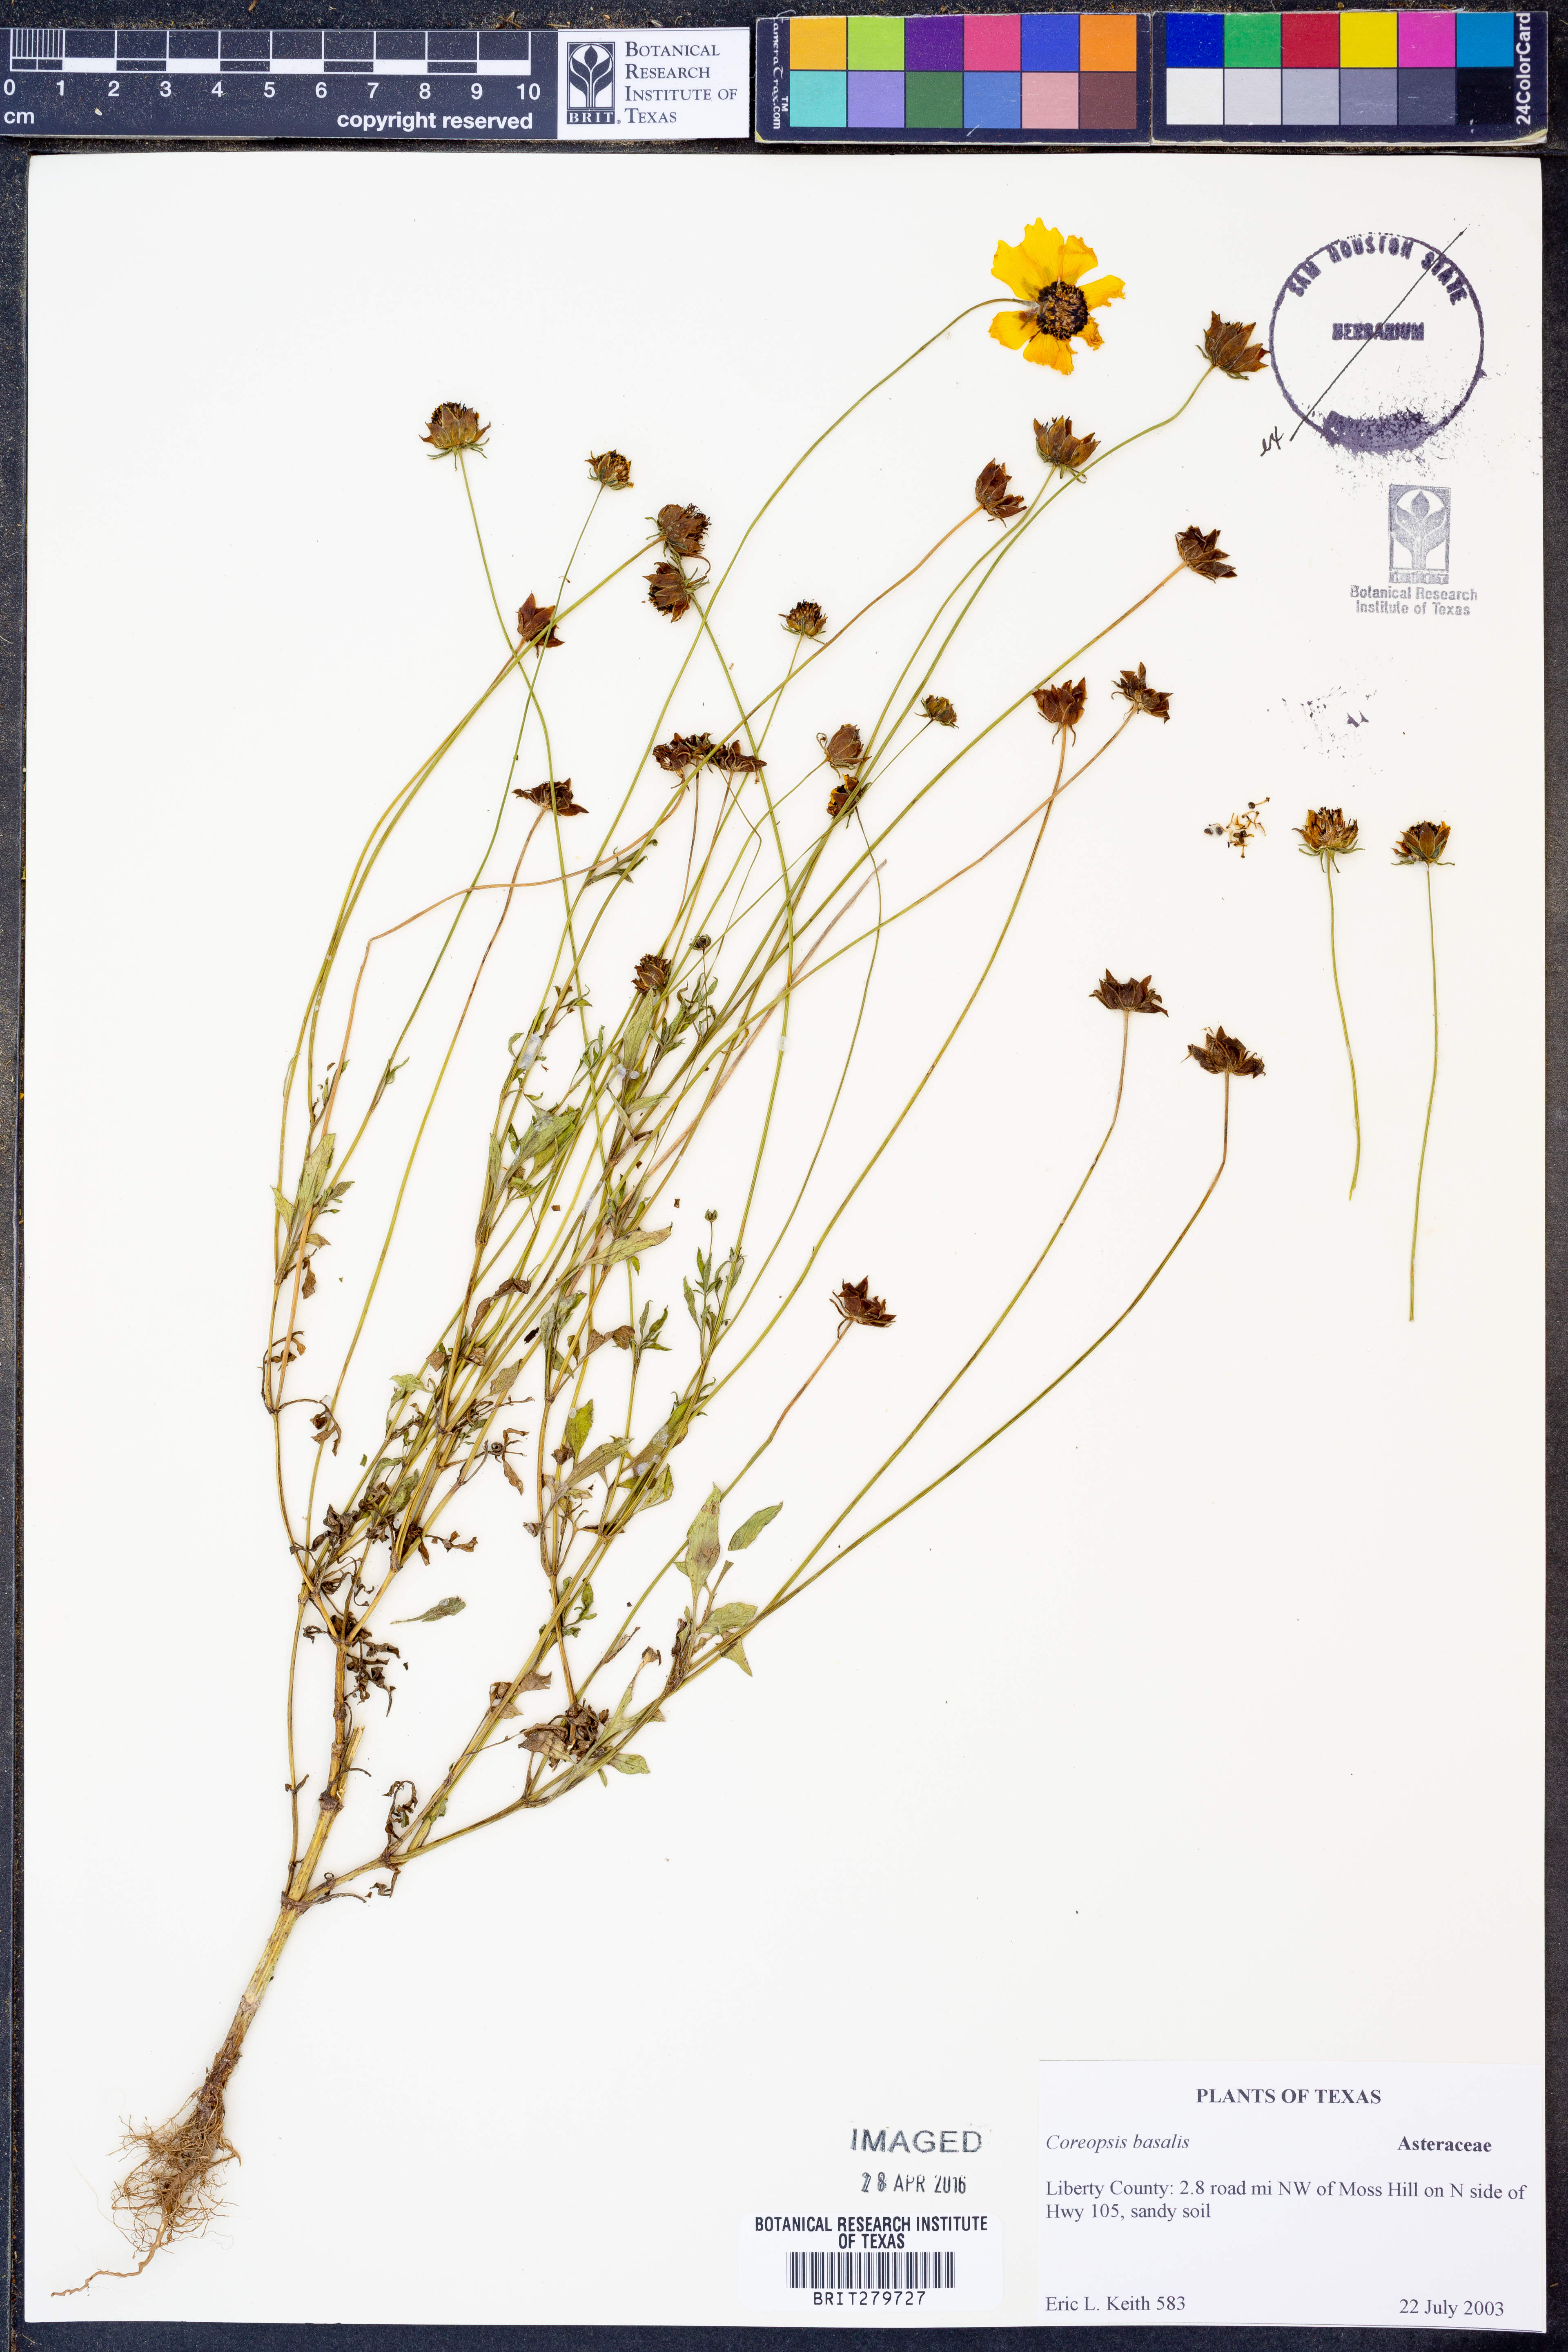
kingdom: Plantae
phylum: Tracheophyta
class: Magnoliopsida
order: Asterales
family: Asteraceae
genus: Coreopsis
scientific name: Coreopsis basalis
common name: Golden-mane coreopsis
